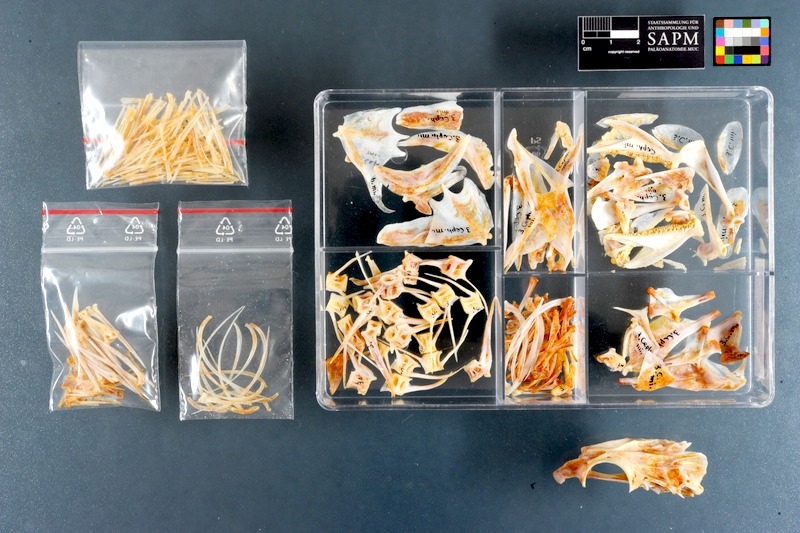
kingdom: Animalia
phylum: Chordata
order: Perciformes
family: Serranidae
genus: Cephalopholis
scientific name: Cephalopholis miniata
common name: Coral hind
